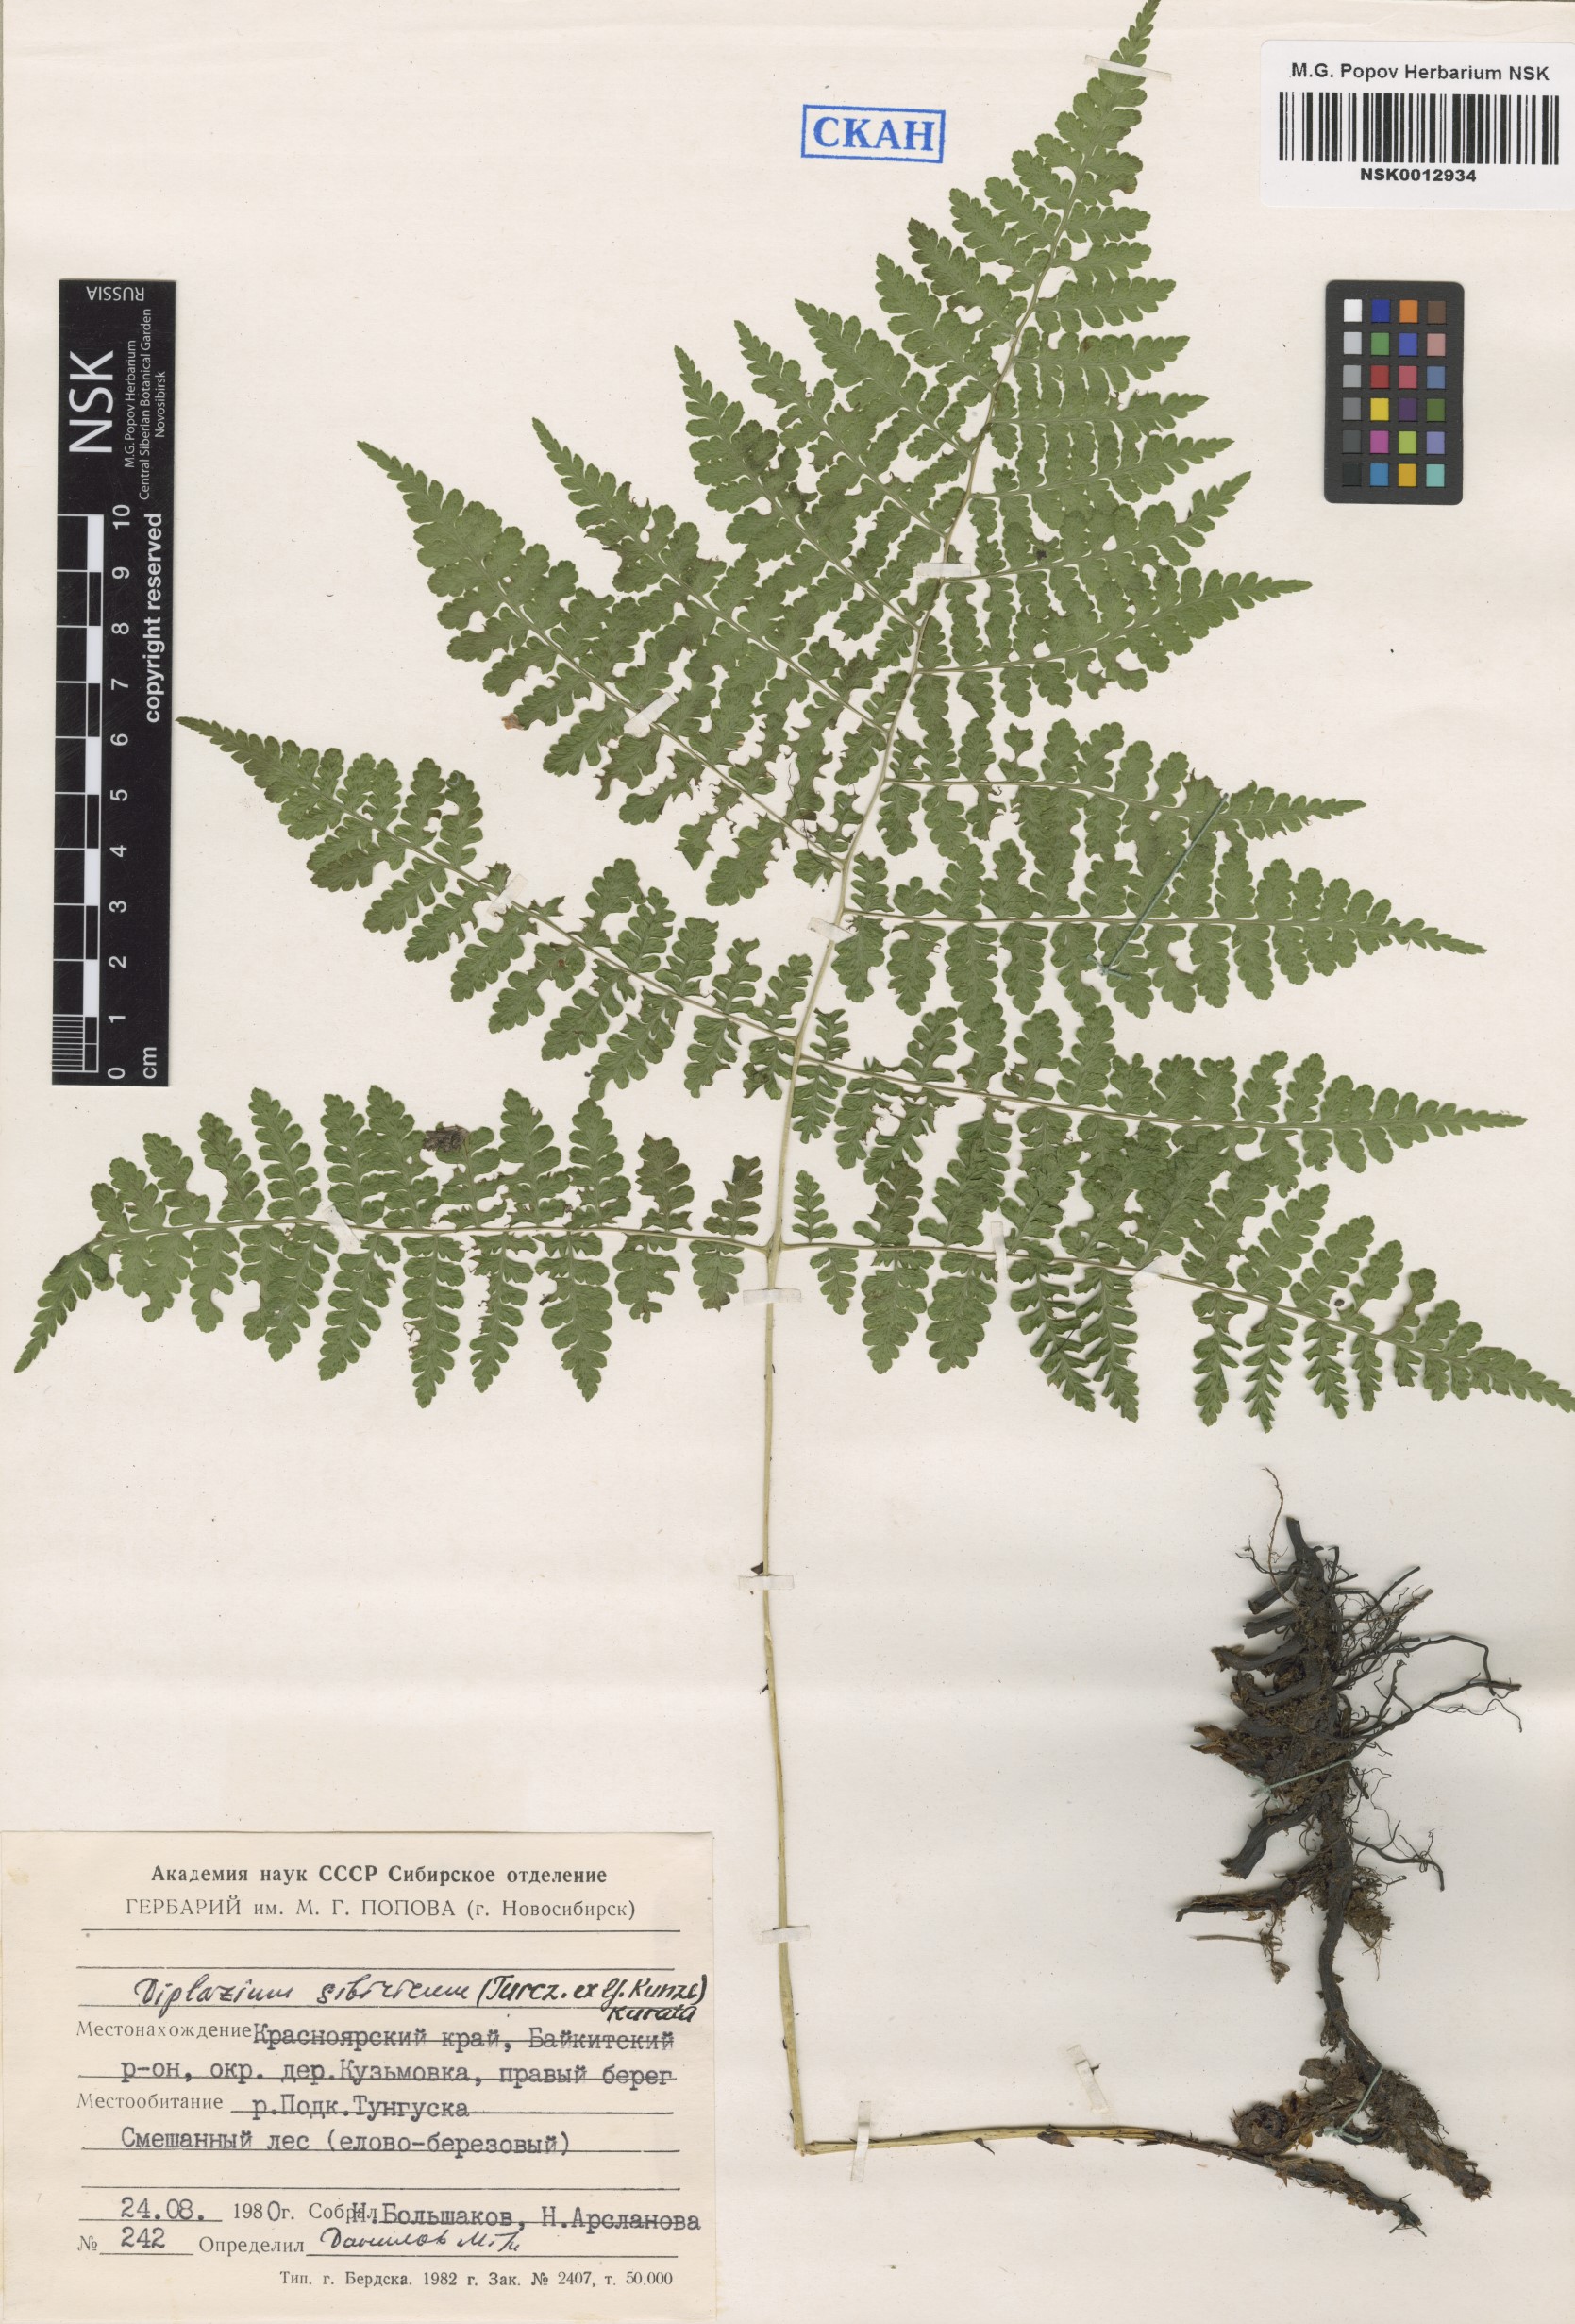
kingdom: Plantae
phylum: Tracheophyta
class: Polypodiopsida
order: Polypodiales
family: Athyriaceae
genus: Diplazium
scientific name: Diplazium sibiricum
